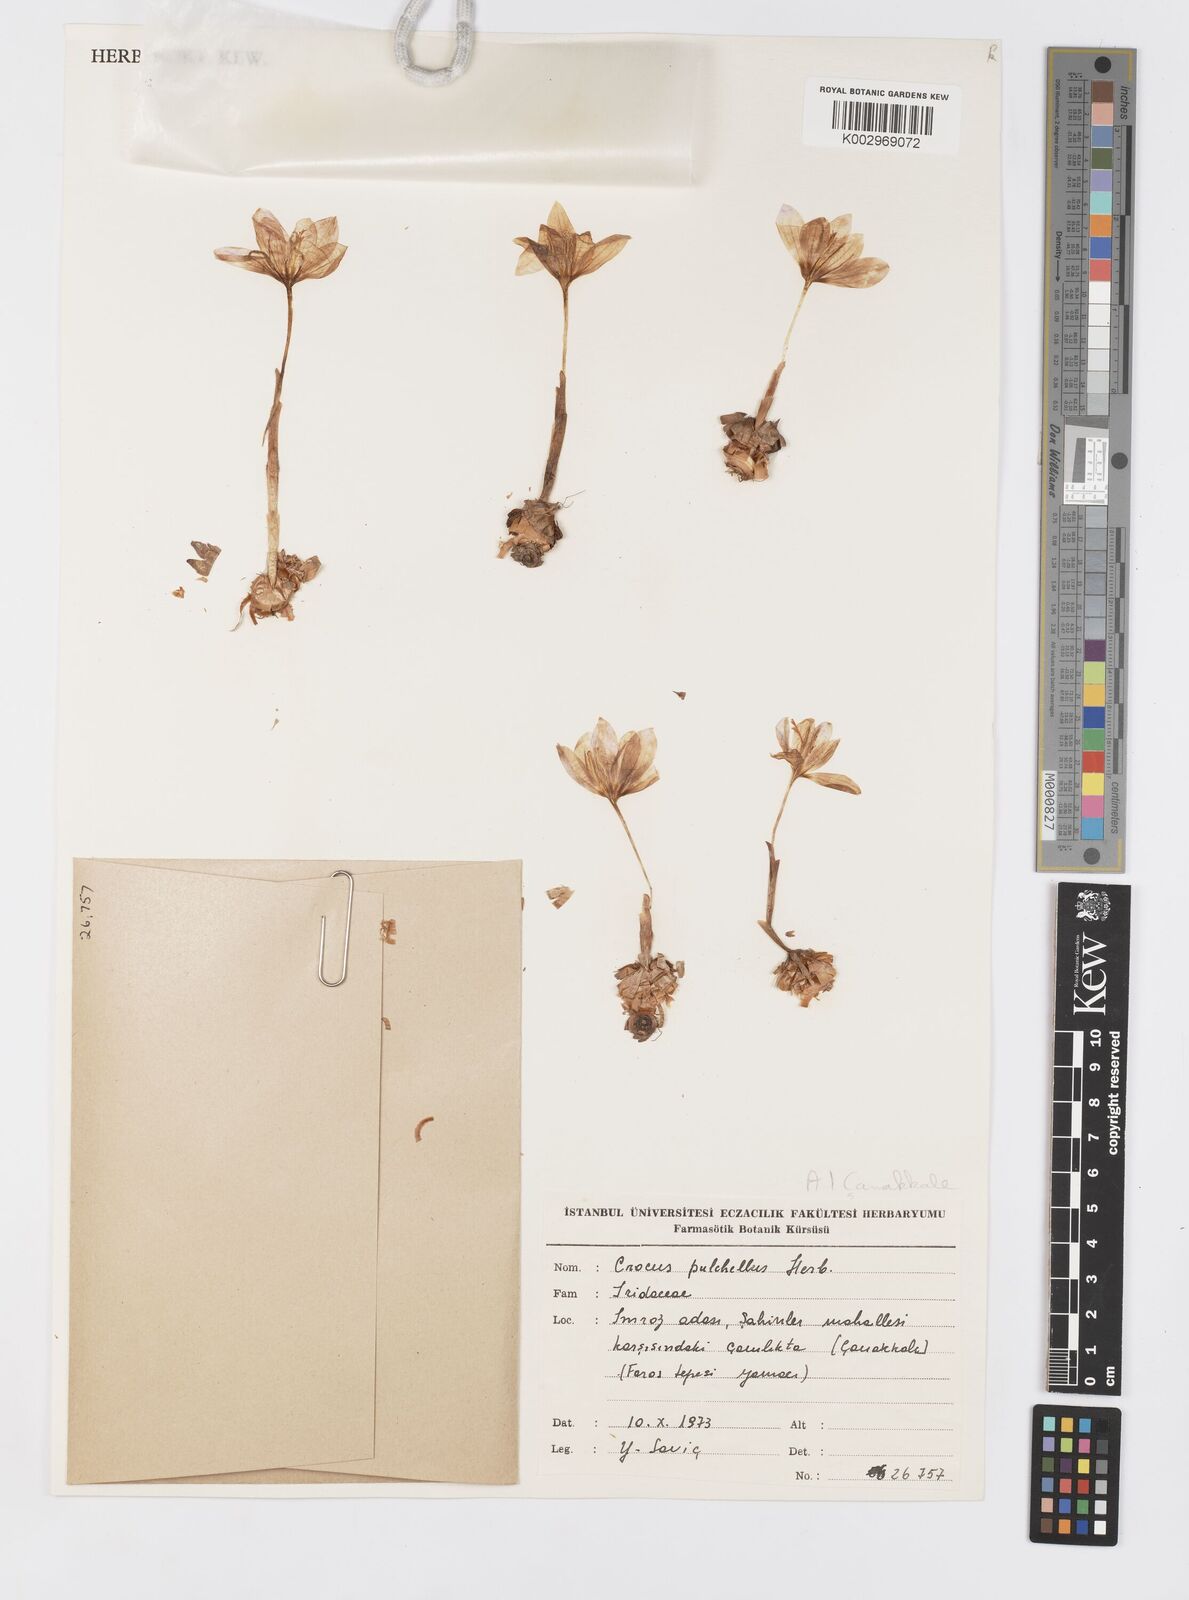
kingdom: Plantae
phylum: Tracheophyta
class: Liliopsida
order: Asparagales
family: Iridaceae
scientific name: Iridaceae
